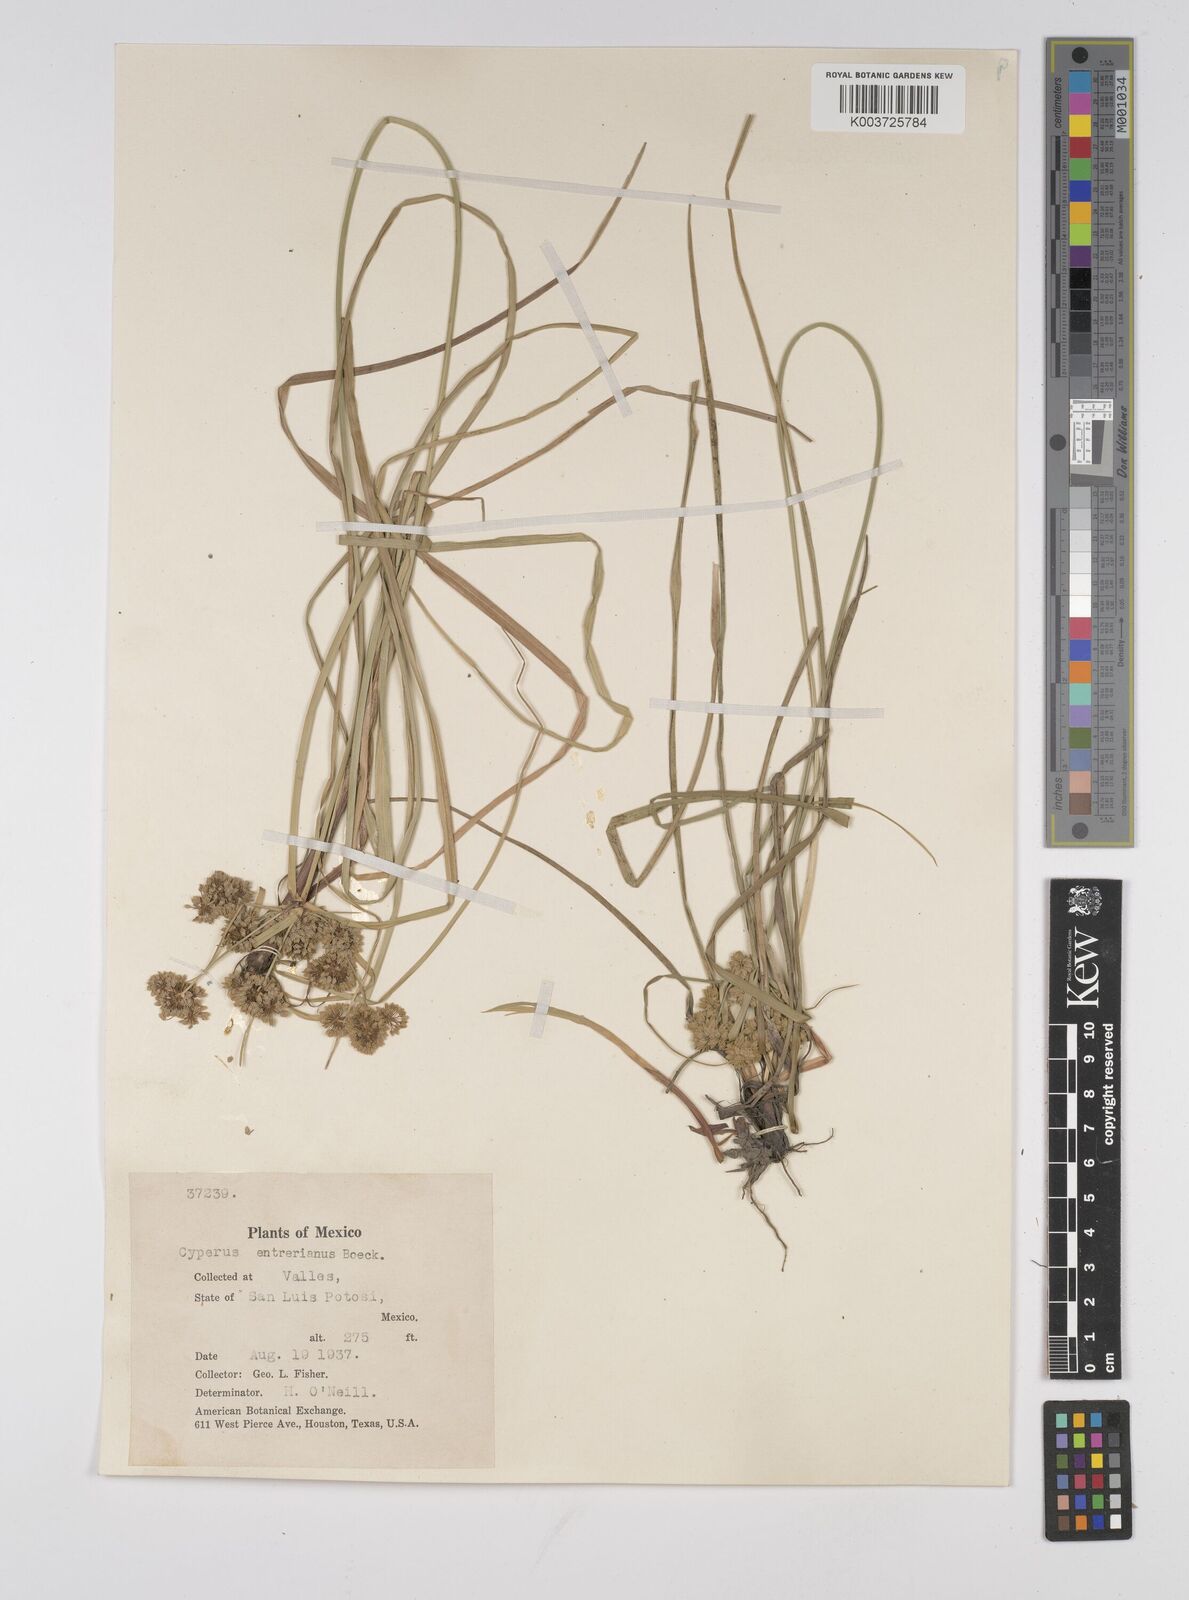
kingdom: Plantae
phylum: Tracheophyta
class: Liliopsida
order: Poales
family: Cyperaceae
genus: Cyperus
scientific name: Cyperus luzulae
